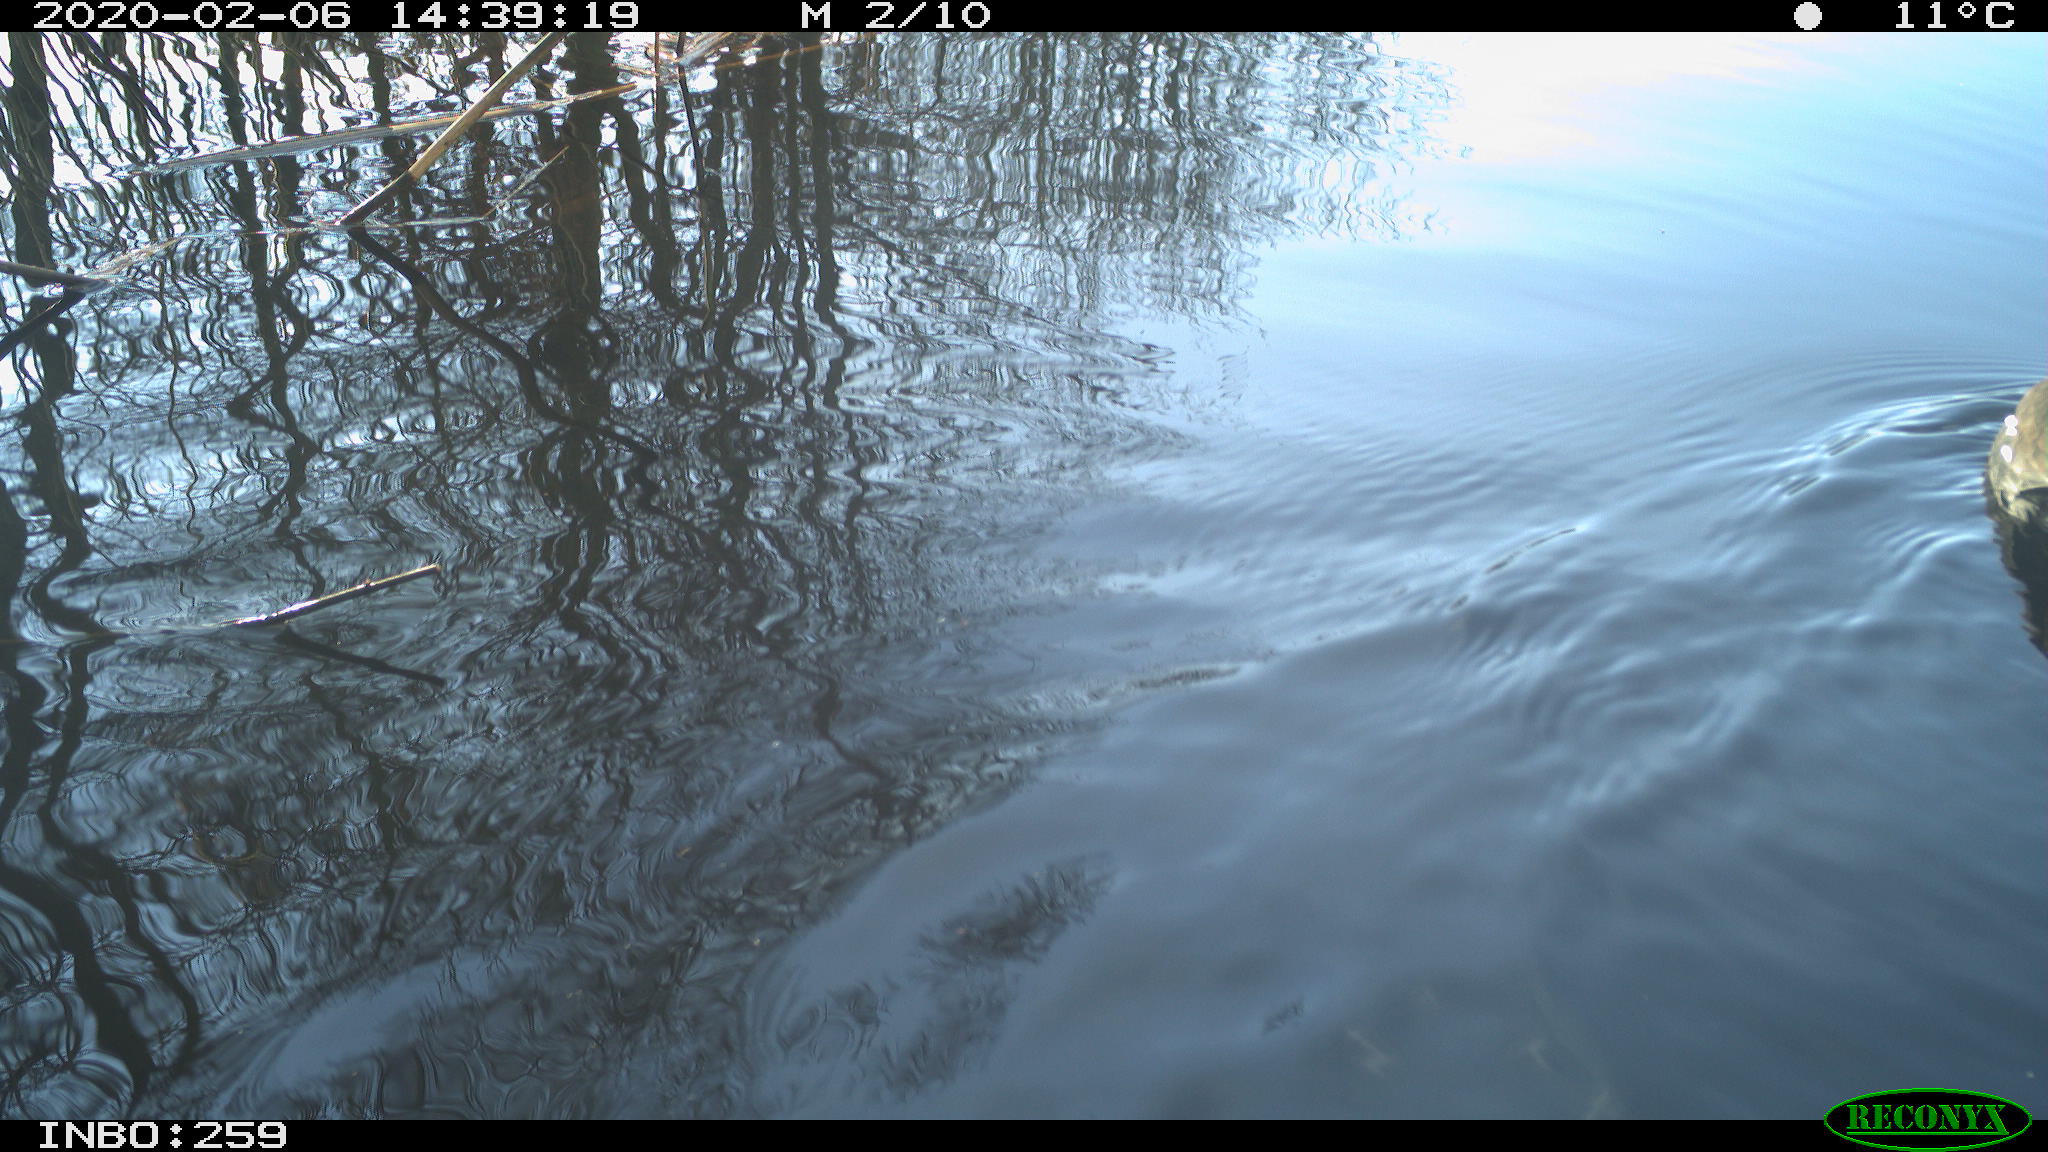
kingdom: Animalia
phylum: Chordata
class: Aves
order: Gruiformes
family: Rallidae
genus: Gallinula
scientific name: Gallinula chloropus
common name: Common moorhen
